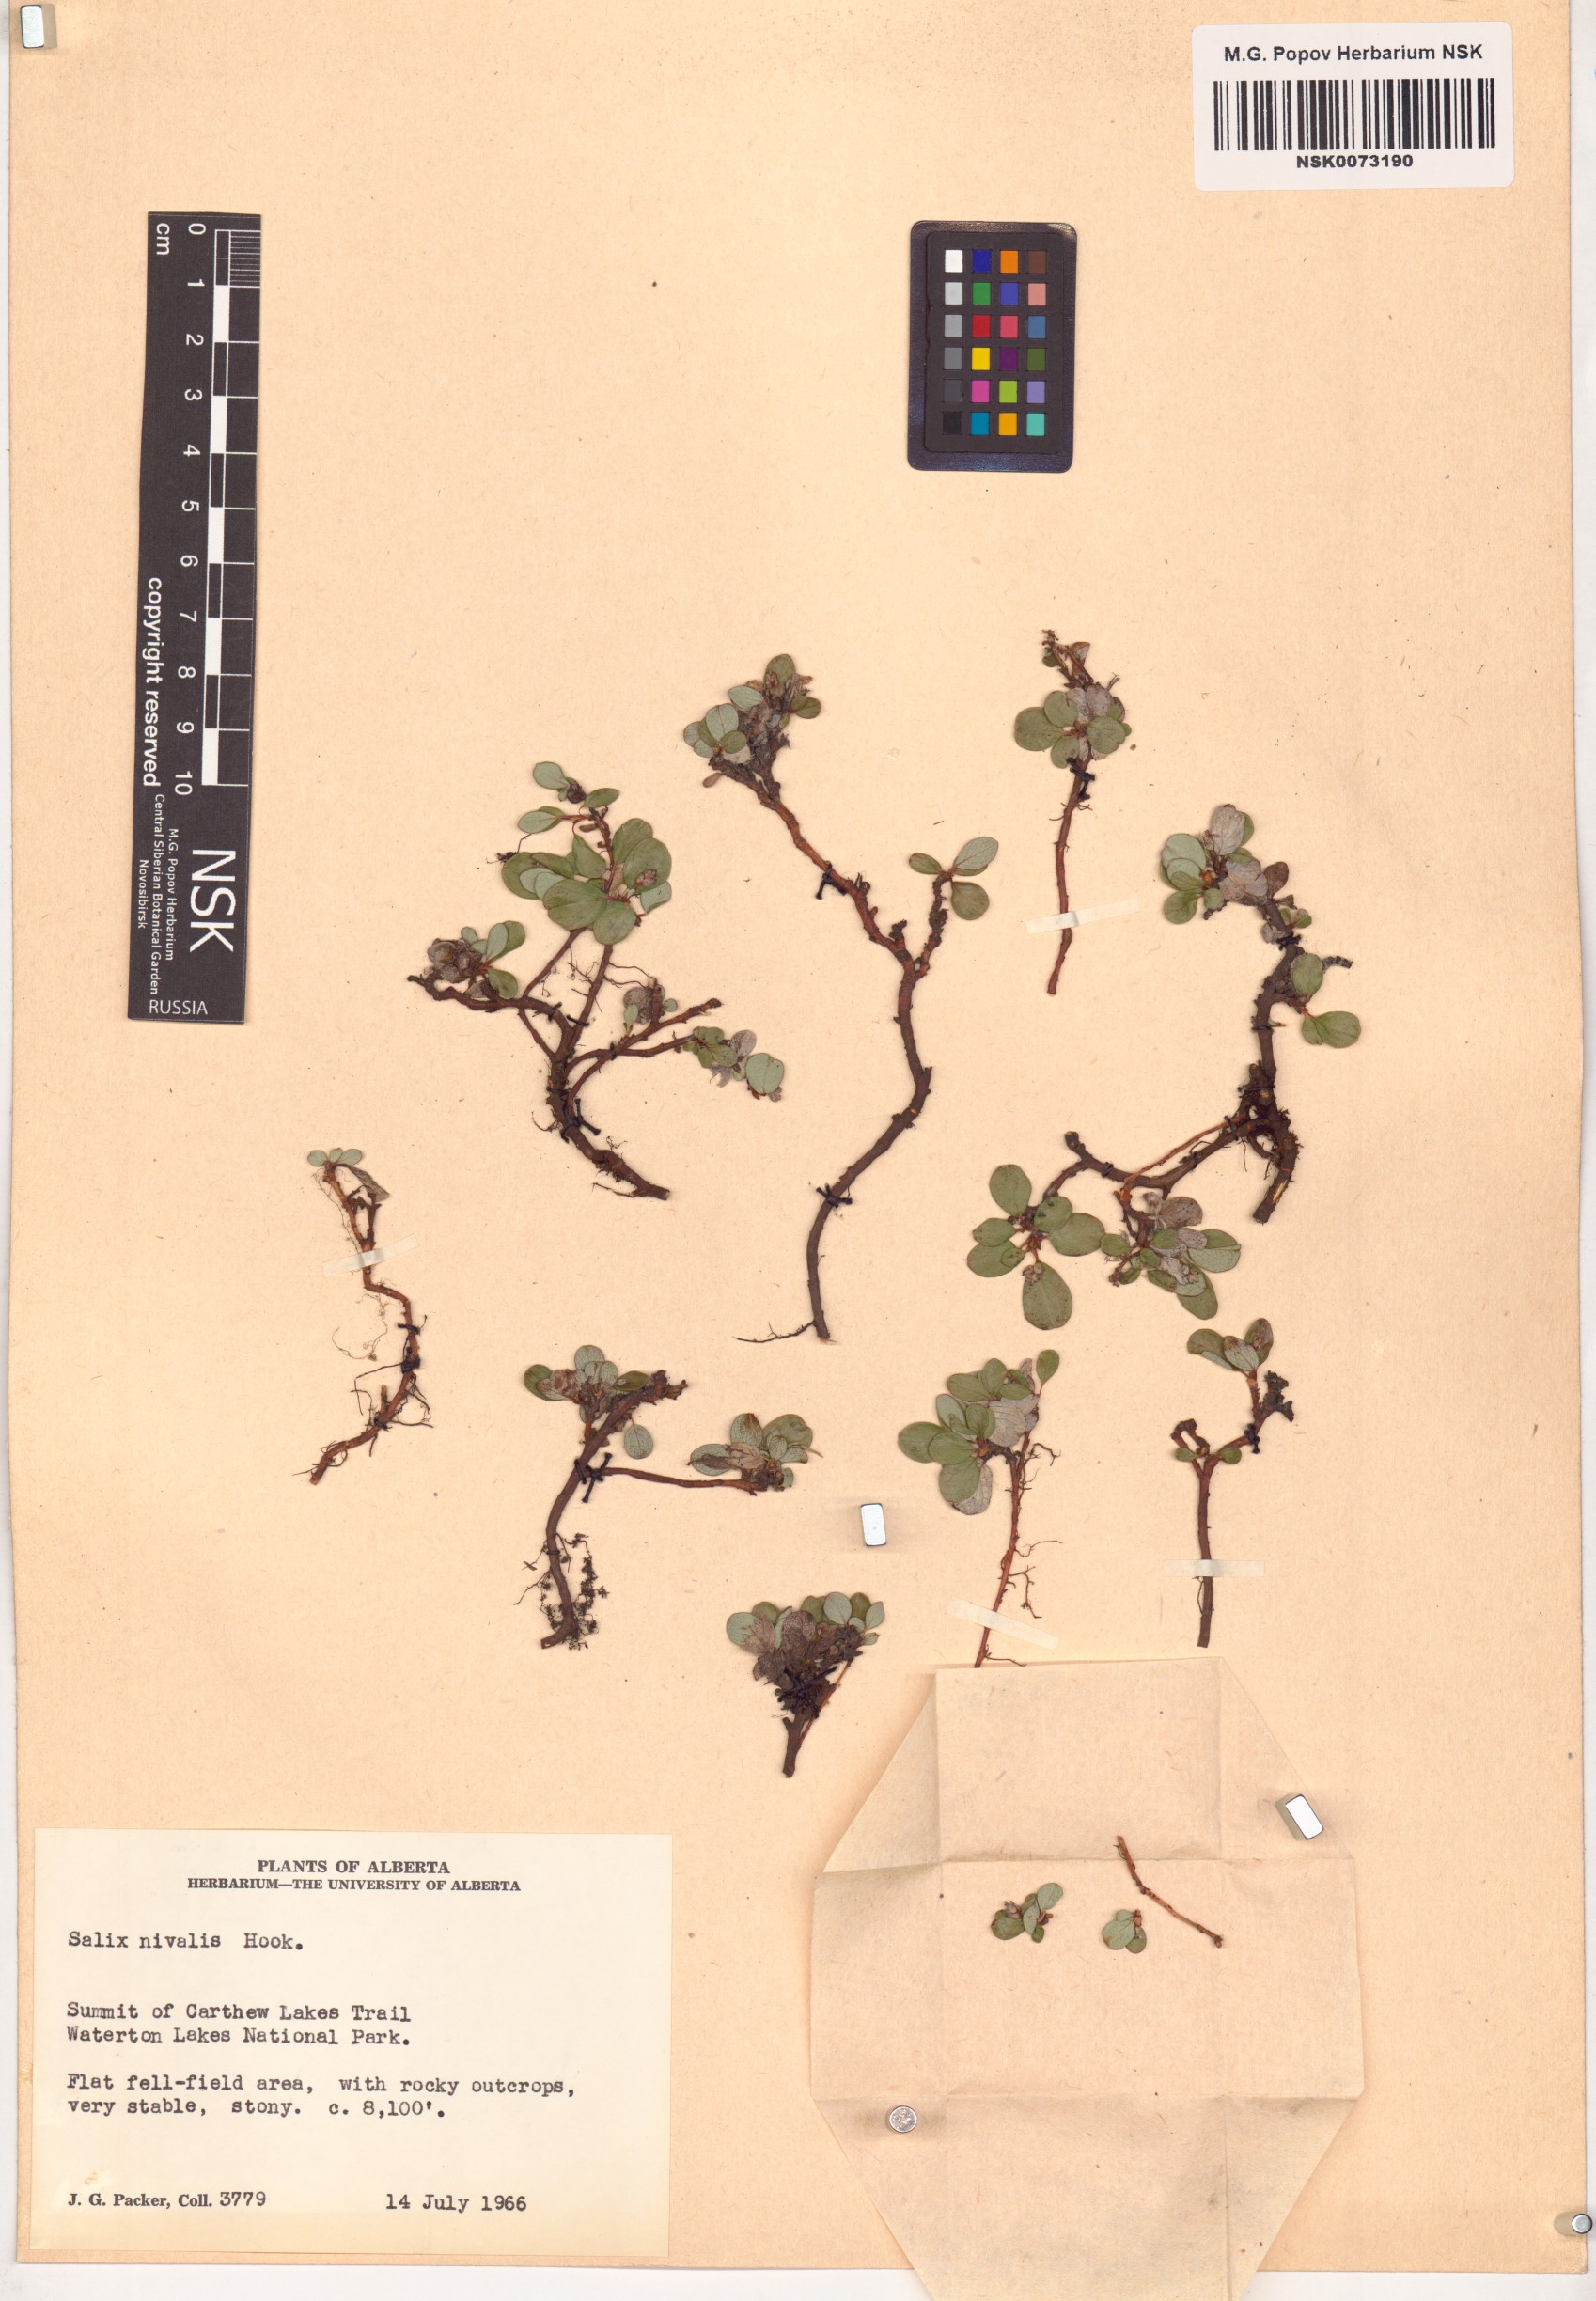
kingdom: Plantae
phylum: Tracheophyta
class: Magnoliopsida
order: Malpighiales
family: Salicaceae
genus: Salix
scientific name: Salix nivalis
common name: Dwarf snow willow
